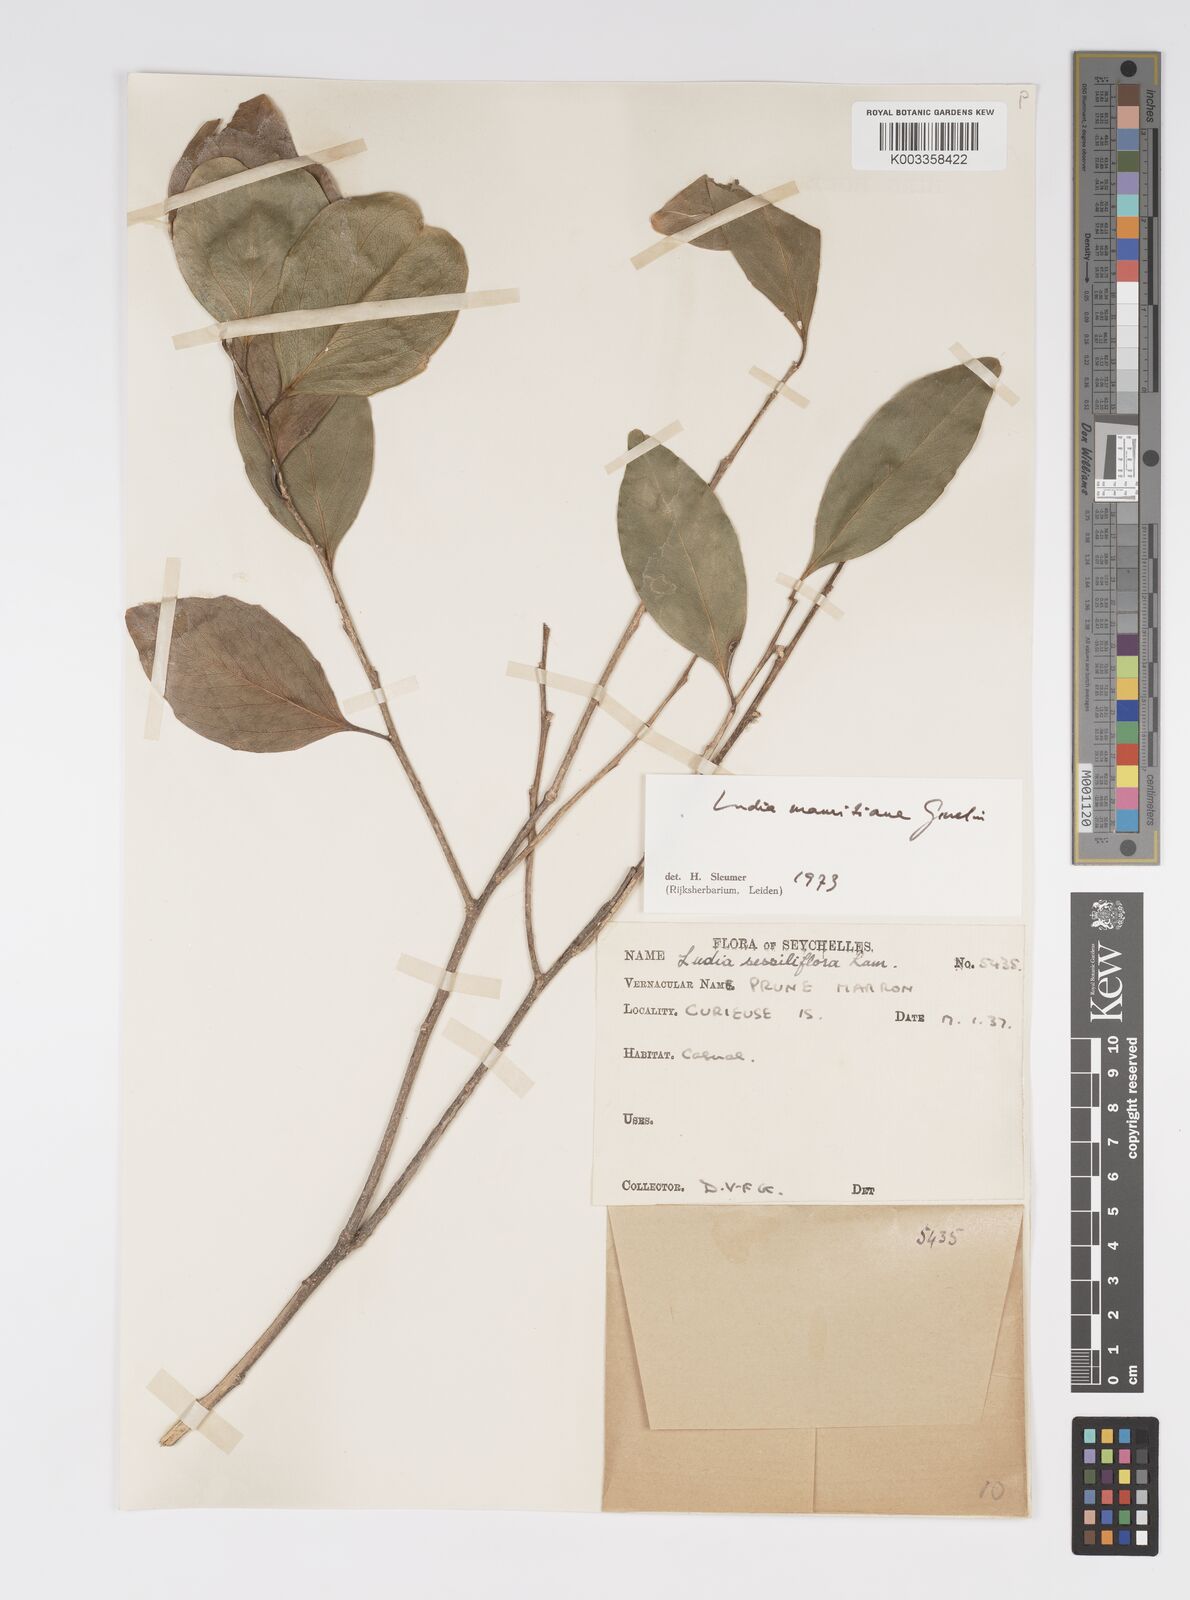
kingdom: Plantae
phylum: Tracheophyta
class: Magnoliopsida
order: Malpighiales
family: Salicaceae
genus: Ludia
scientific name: Ludia mauritiana
